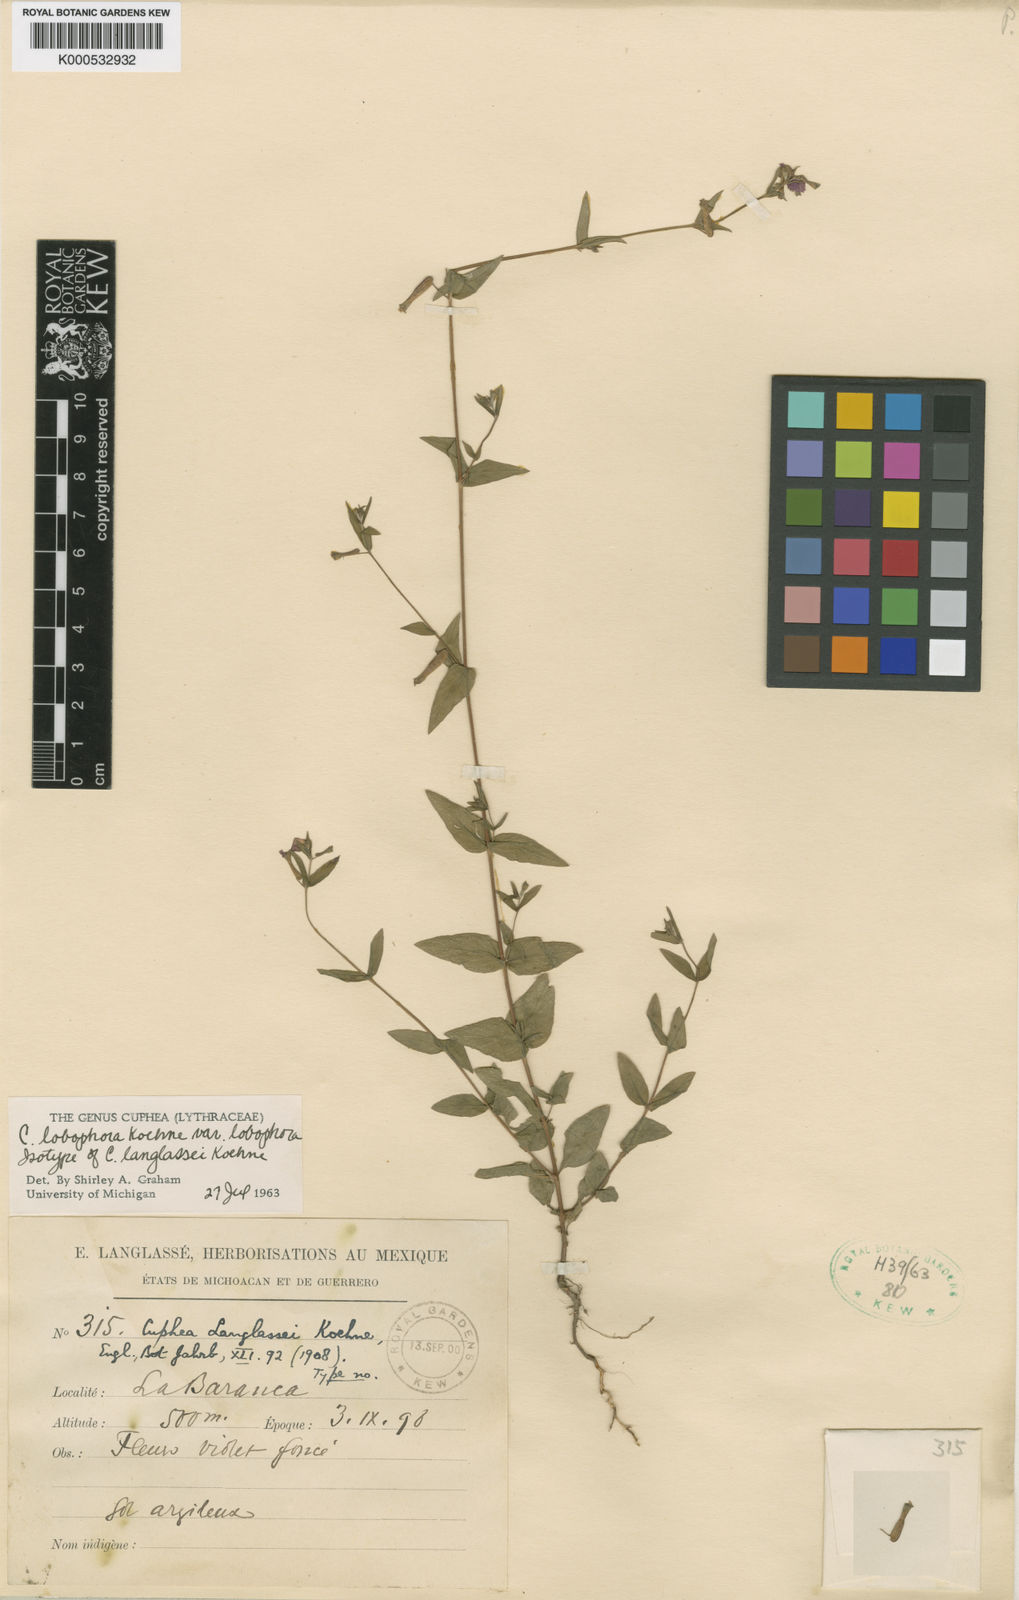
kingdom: Plantae
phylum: Tracheophyta
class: Magnoliopsida
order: Myrtales
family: Lythraceae
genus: Cuphea
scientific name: Cuphea lobophora
